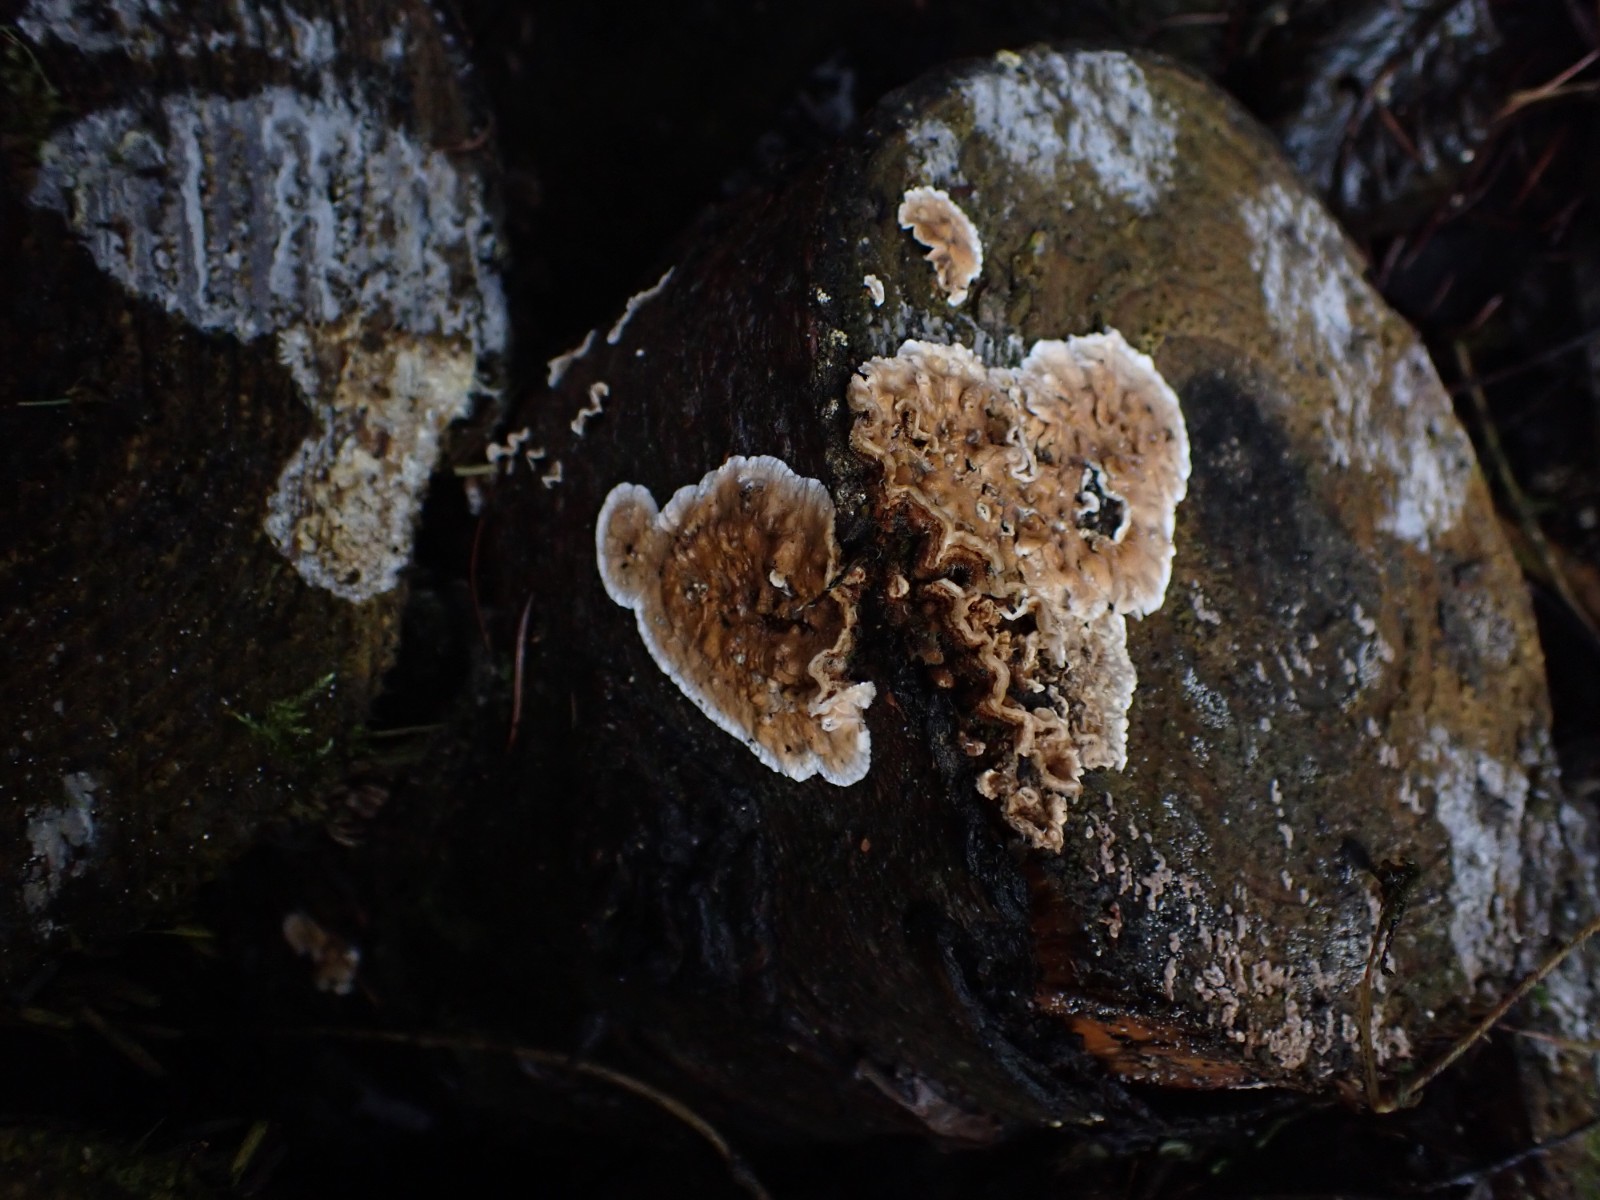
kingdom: Fungi
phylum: Basidiomycota
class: Agaricomycetes
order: Russulales
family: Stereaceae
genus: Stereum
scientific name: Stereum sanguinolentum
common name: blødende lædersvamp
